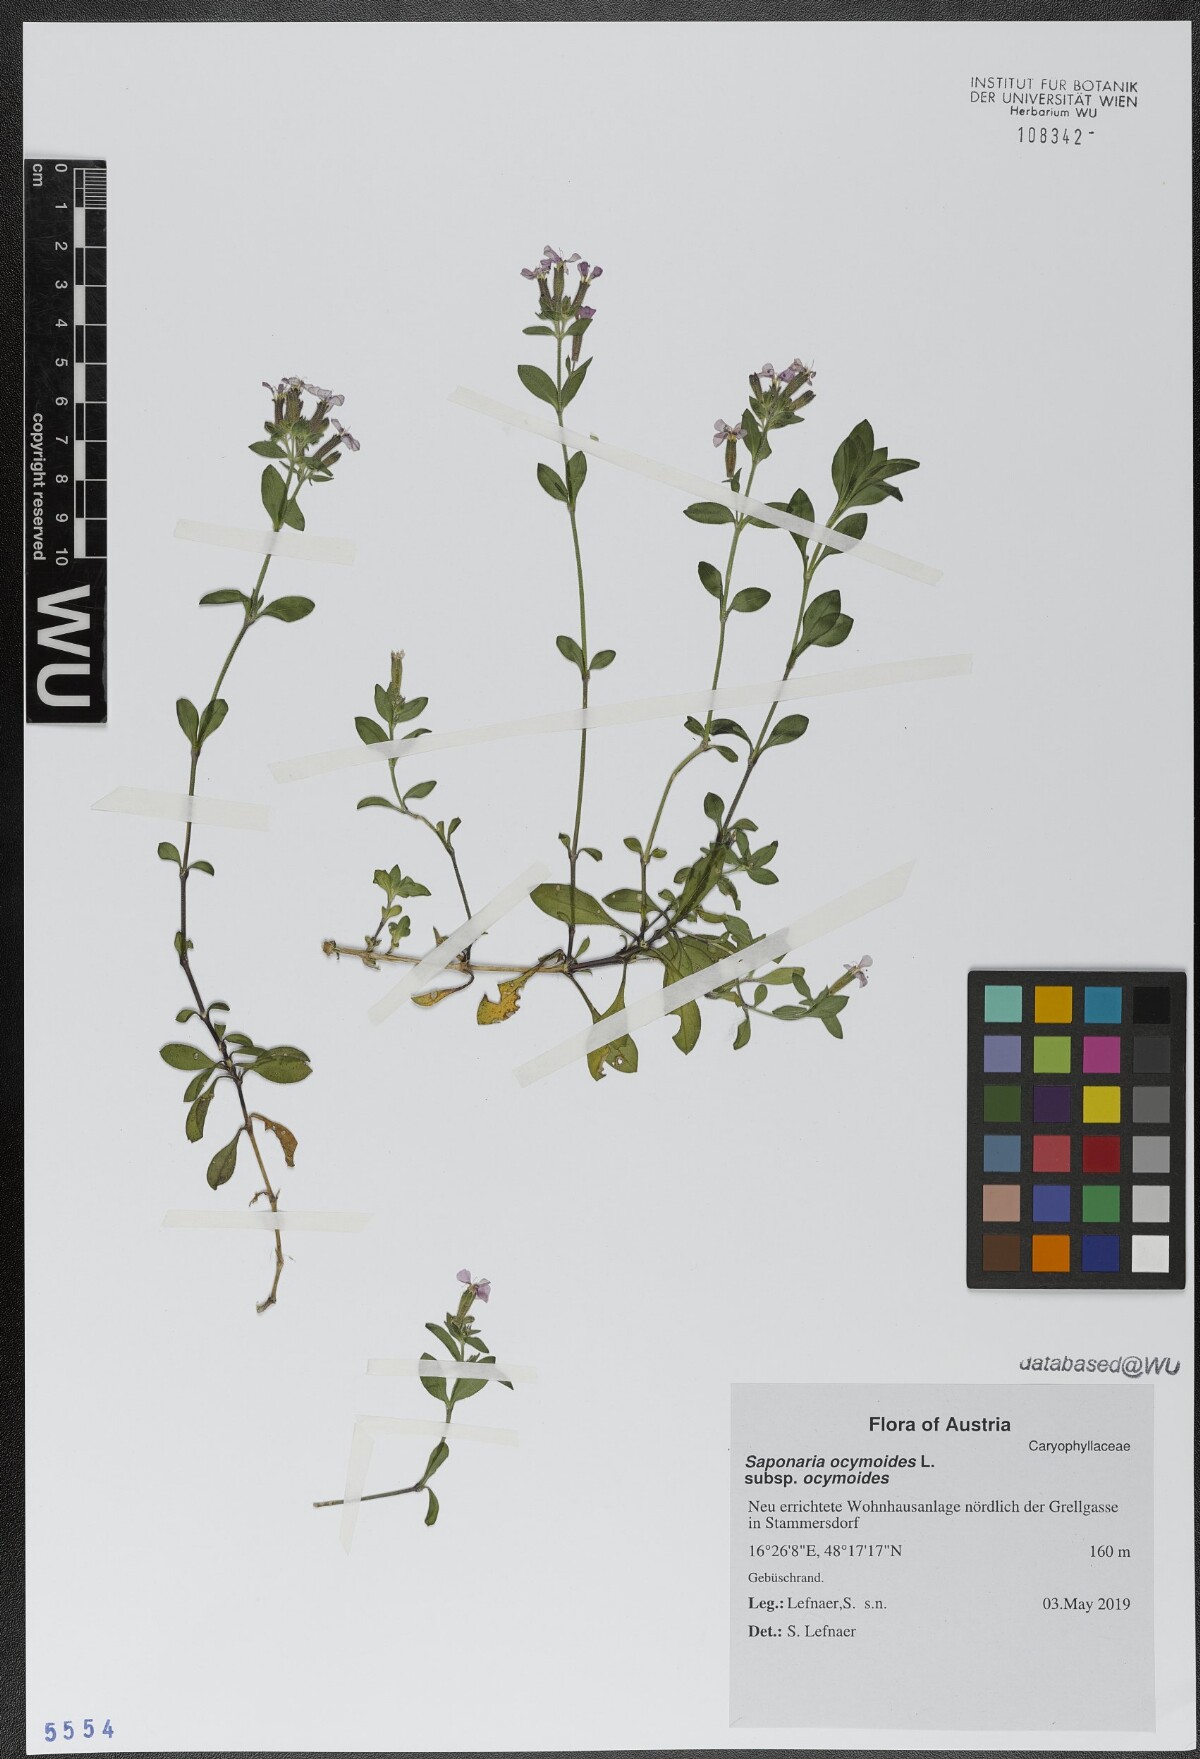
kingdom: Plantae
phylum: Tracheophyta
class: Magnoliopsida
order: Caryophyllales
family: Caryophyllaceae
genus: Saponaria
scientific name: Saponaria ocymoides
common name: Rock soapwort
